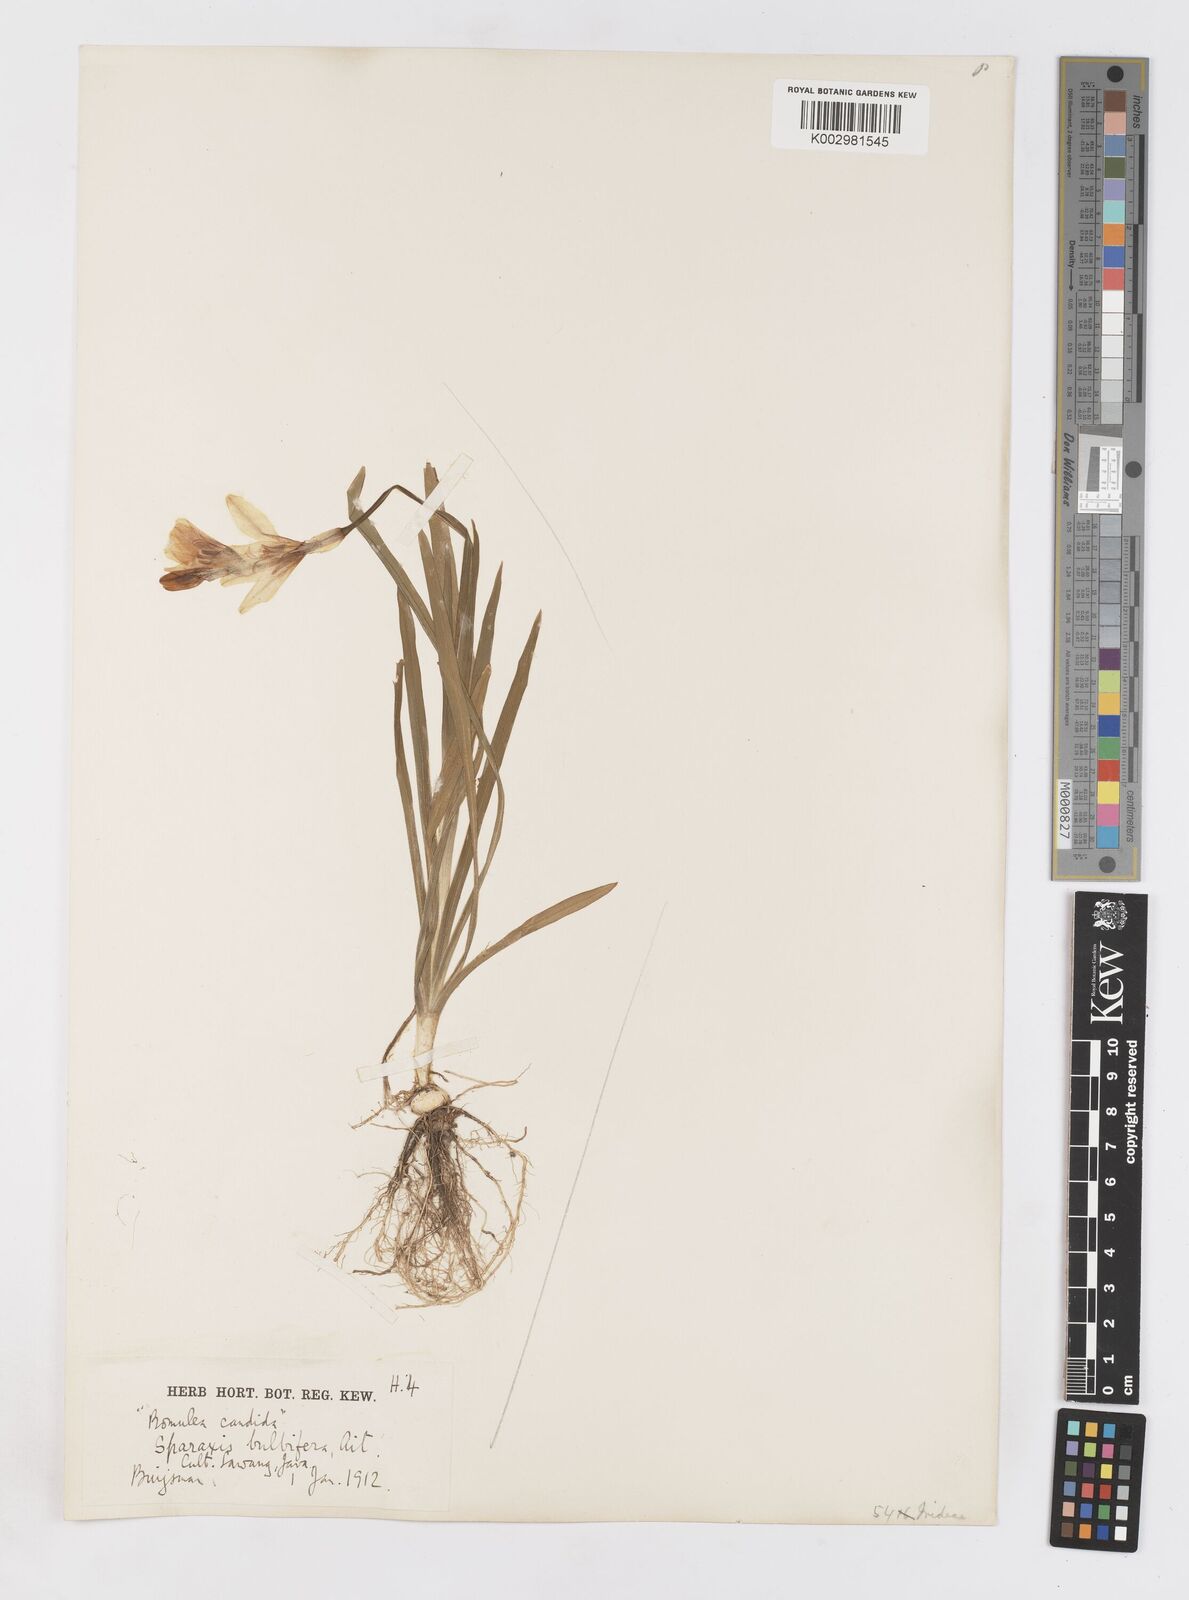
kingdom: Plantae
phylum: Tracheophyta
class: Liliopsida
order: Asparagales
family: Iridaceae
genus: Sparaxis
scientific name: Sparaxis
